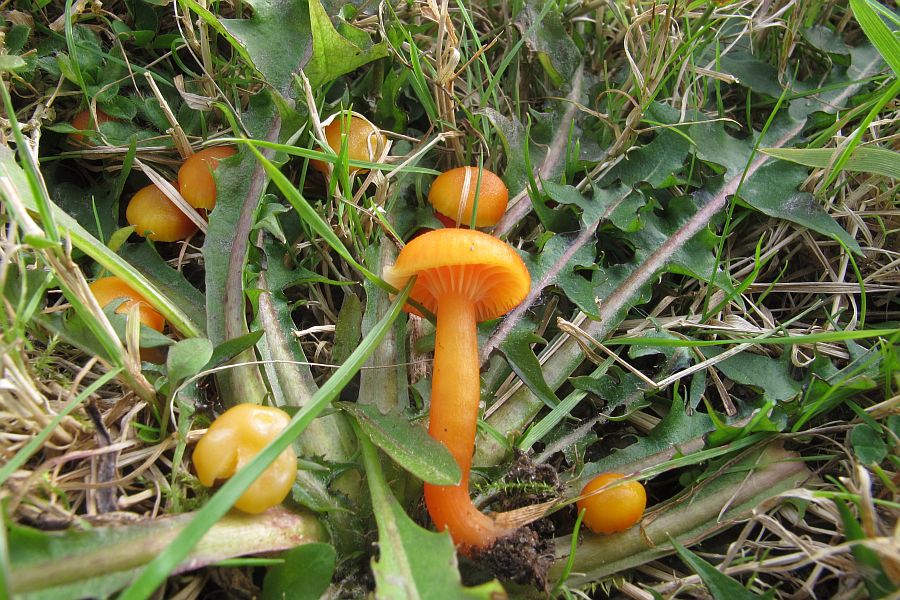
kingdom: Fungi
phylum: Basidiomycota
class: Agaricomycetes
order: Agaricales
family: Hygrophoraceae
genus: Hygrocybe
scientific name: Hygrocybe insipida
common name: liden vokshat
